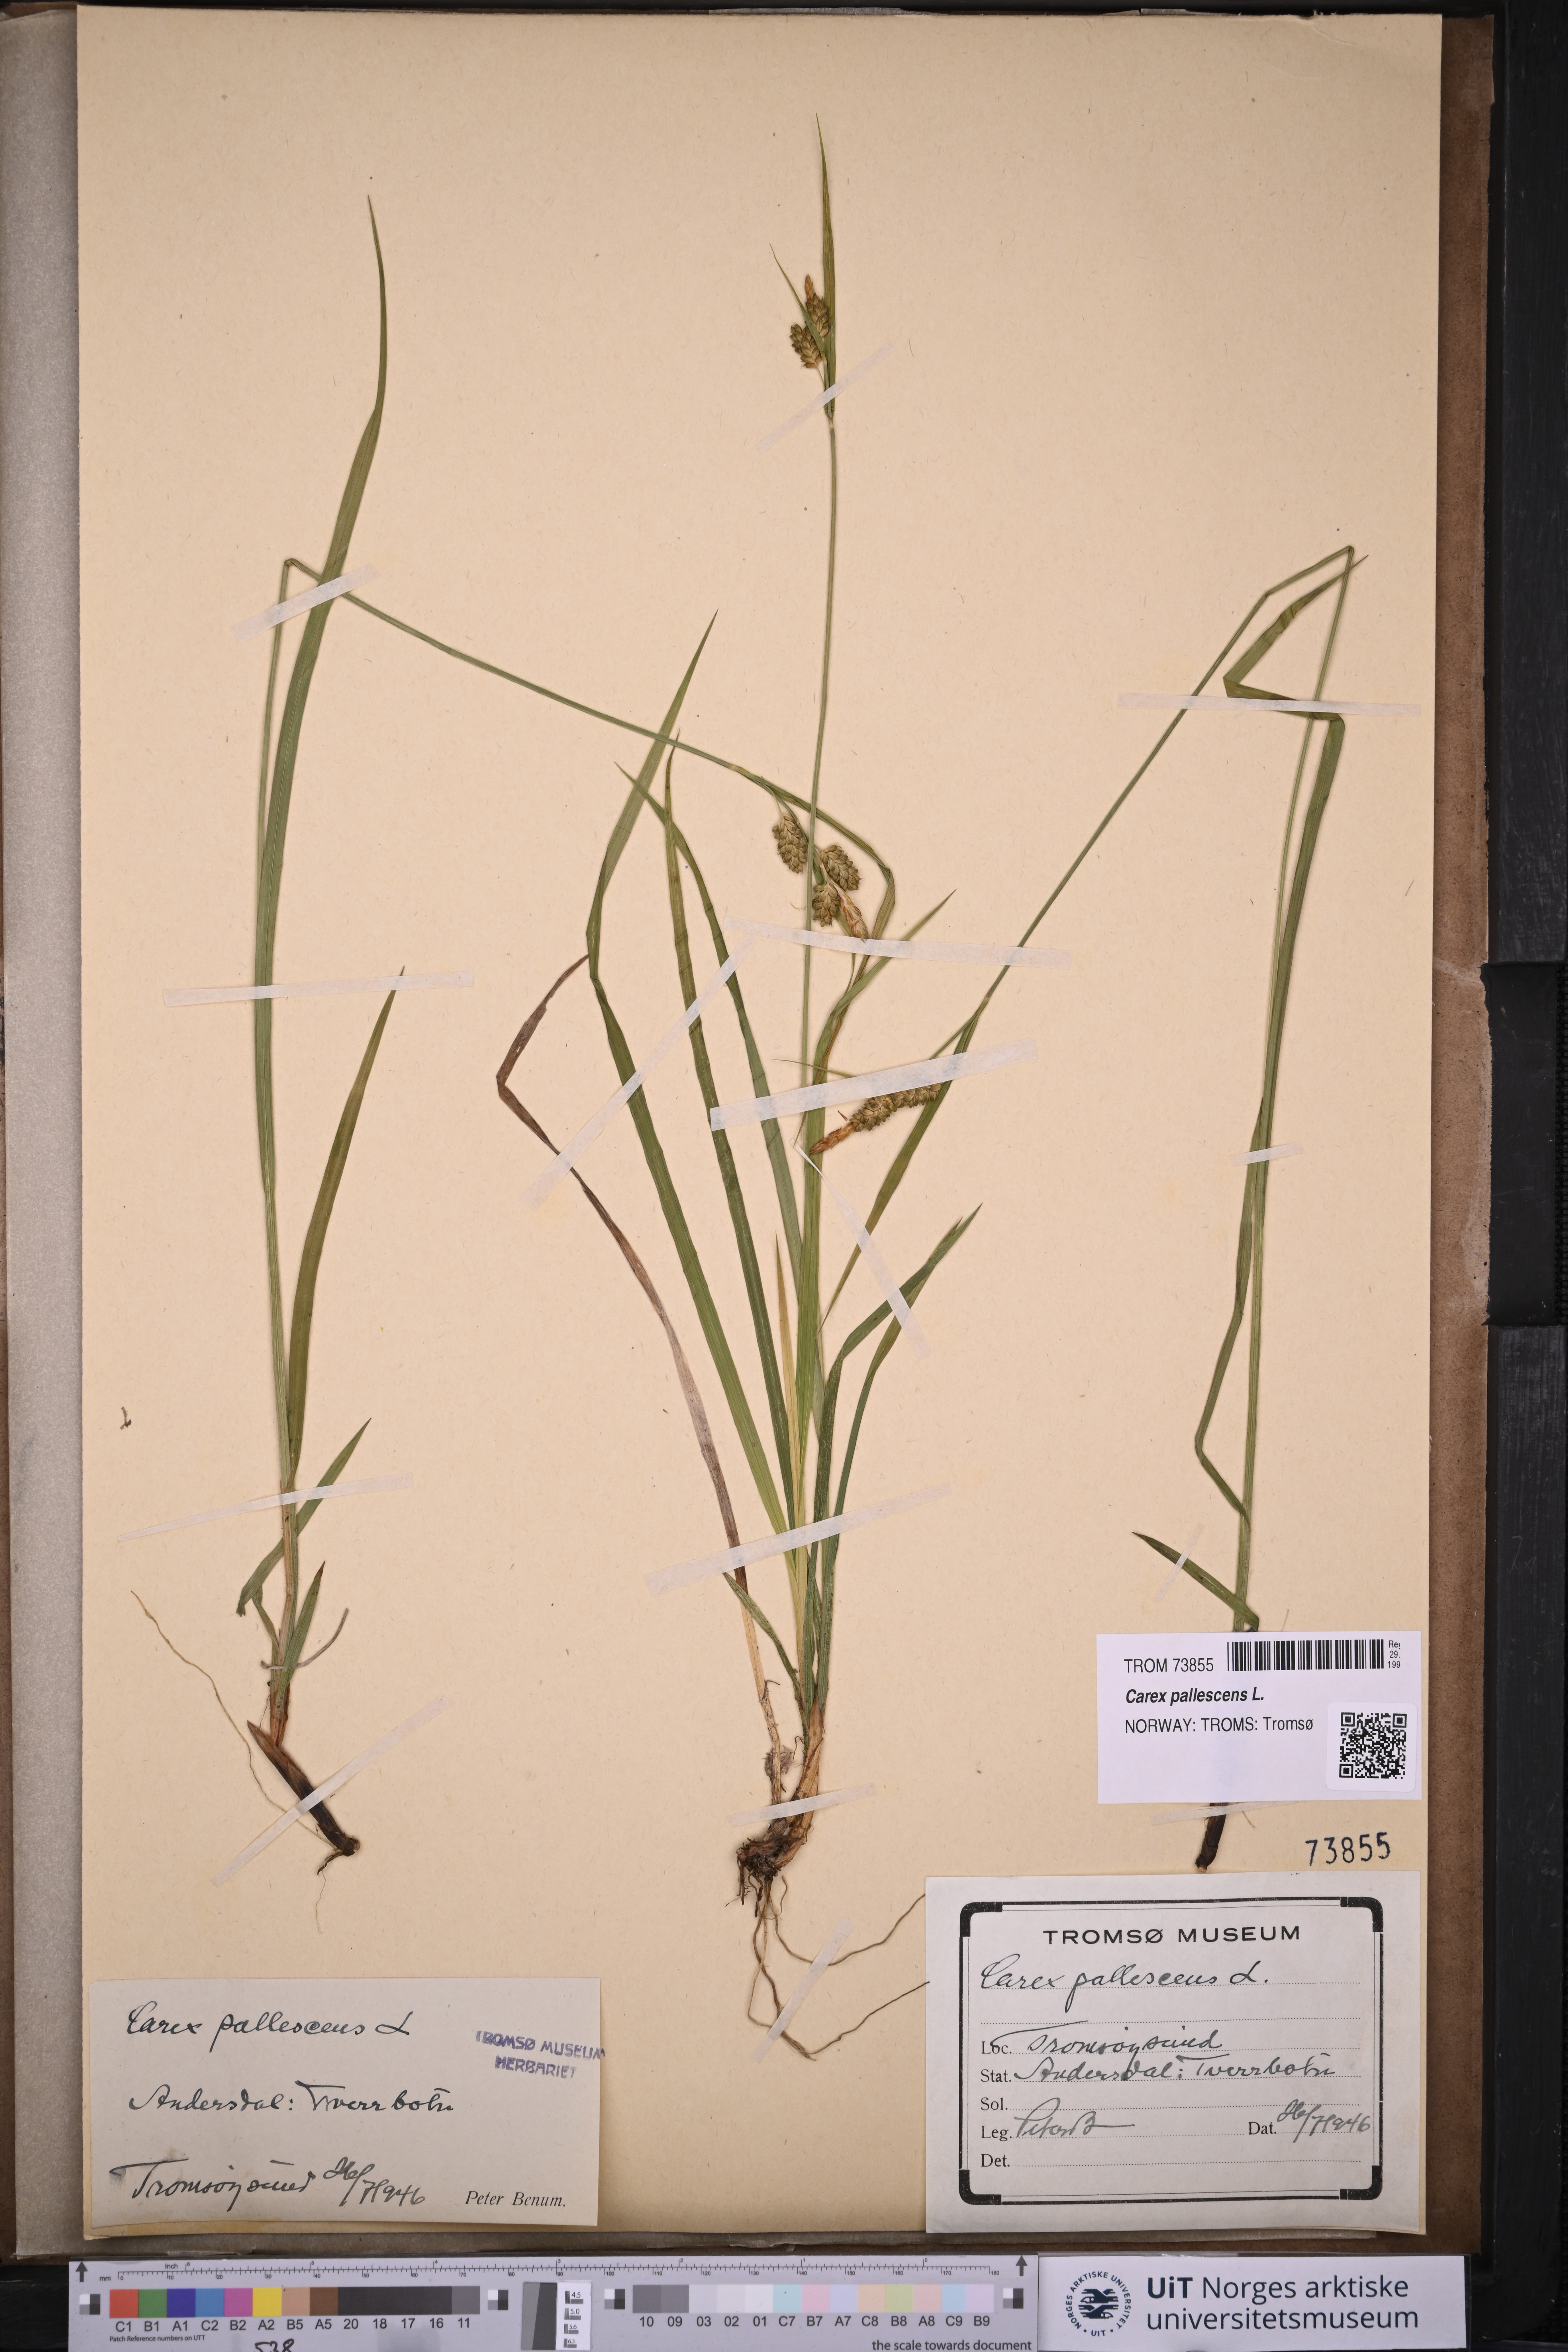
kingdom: Plantae
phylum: Tracheophyta
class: Liliopsida
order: Poales
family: Cyperaceae
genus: Carex
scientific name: Carex pallescens
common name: Pale sedge
